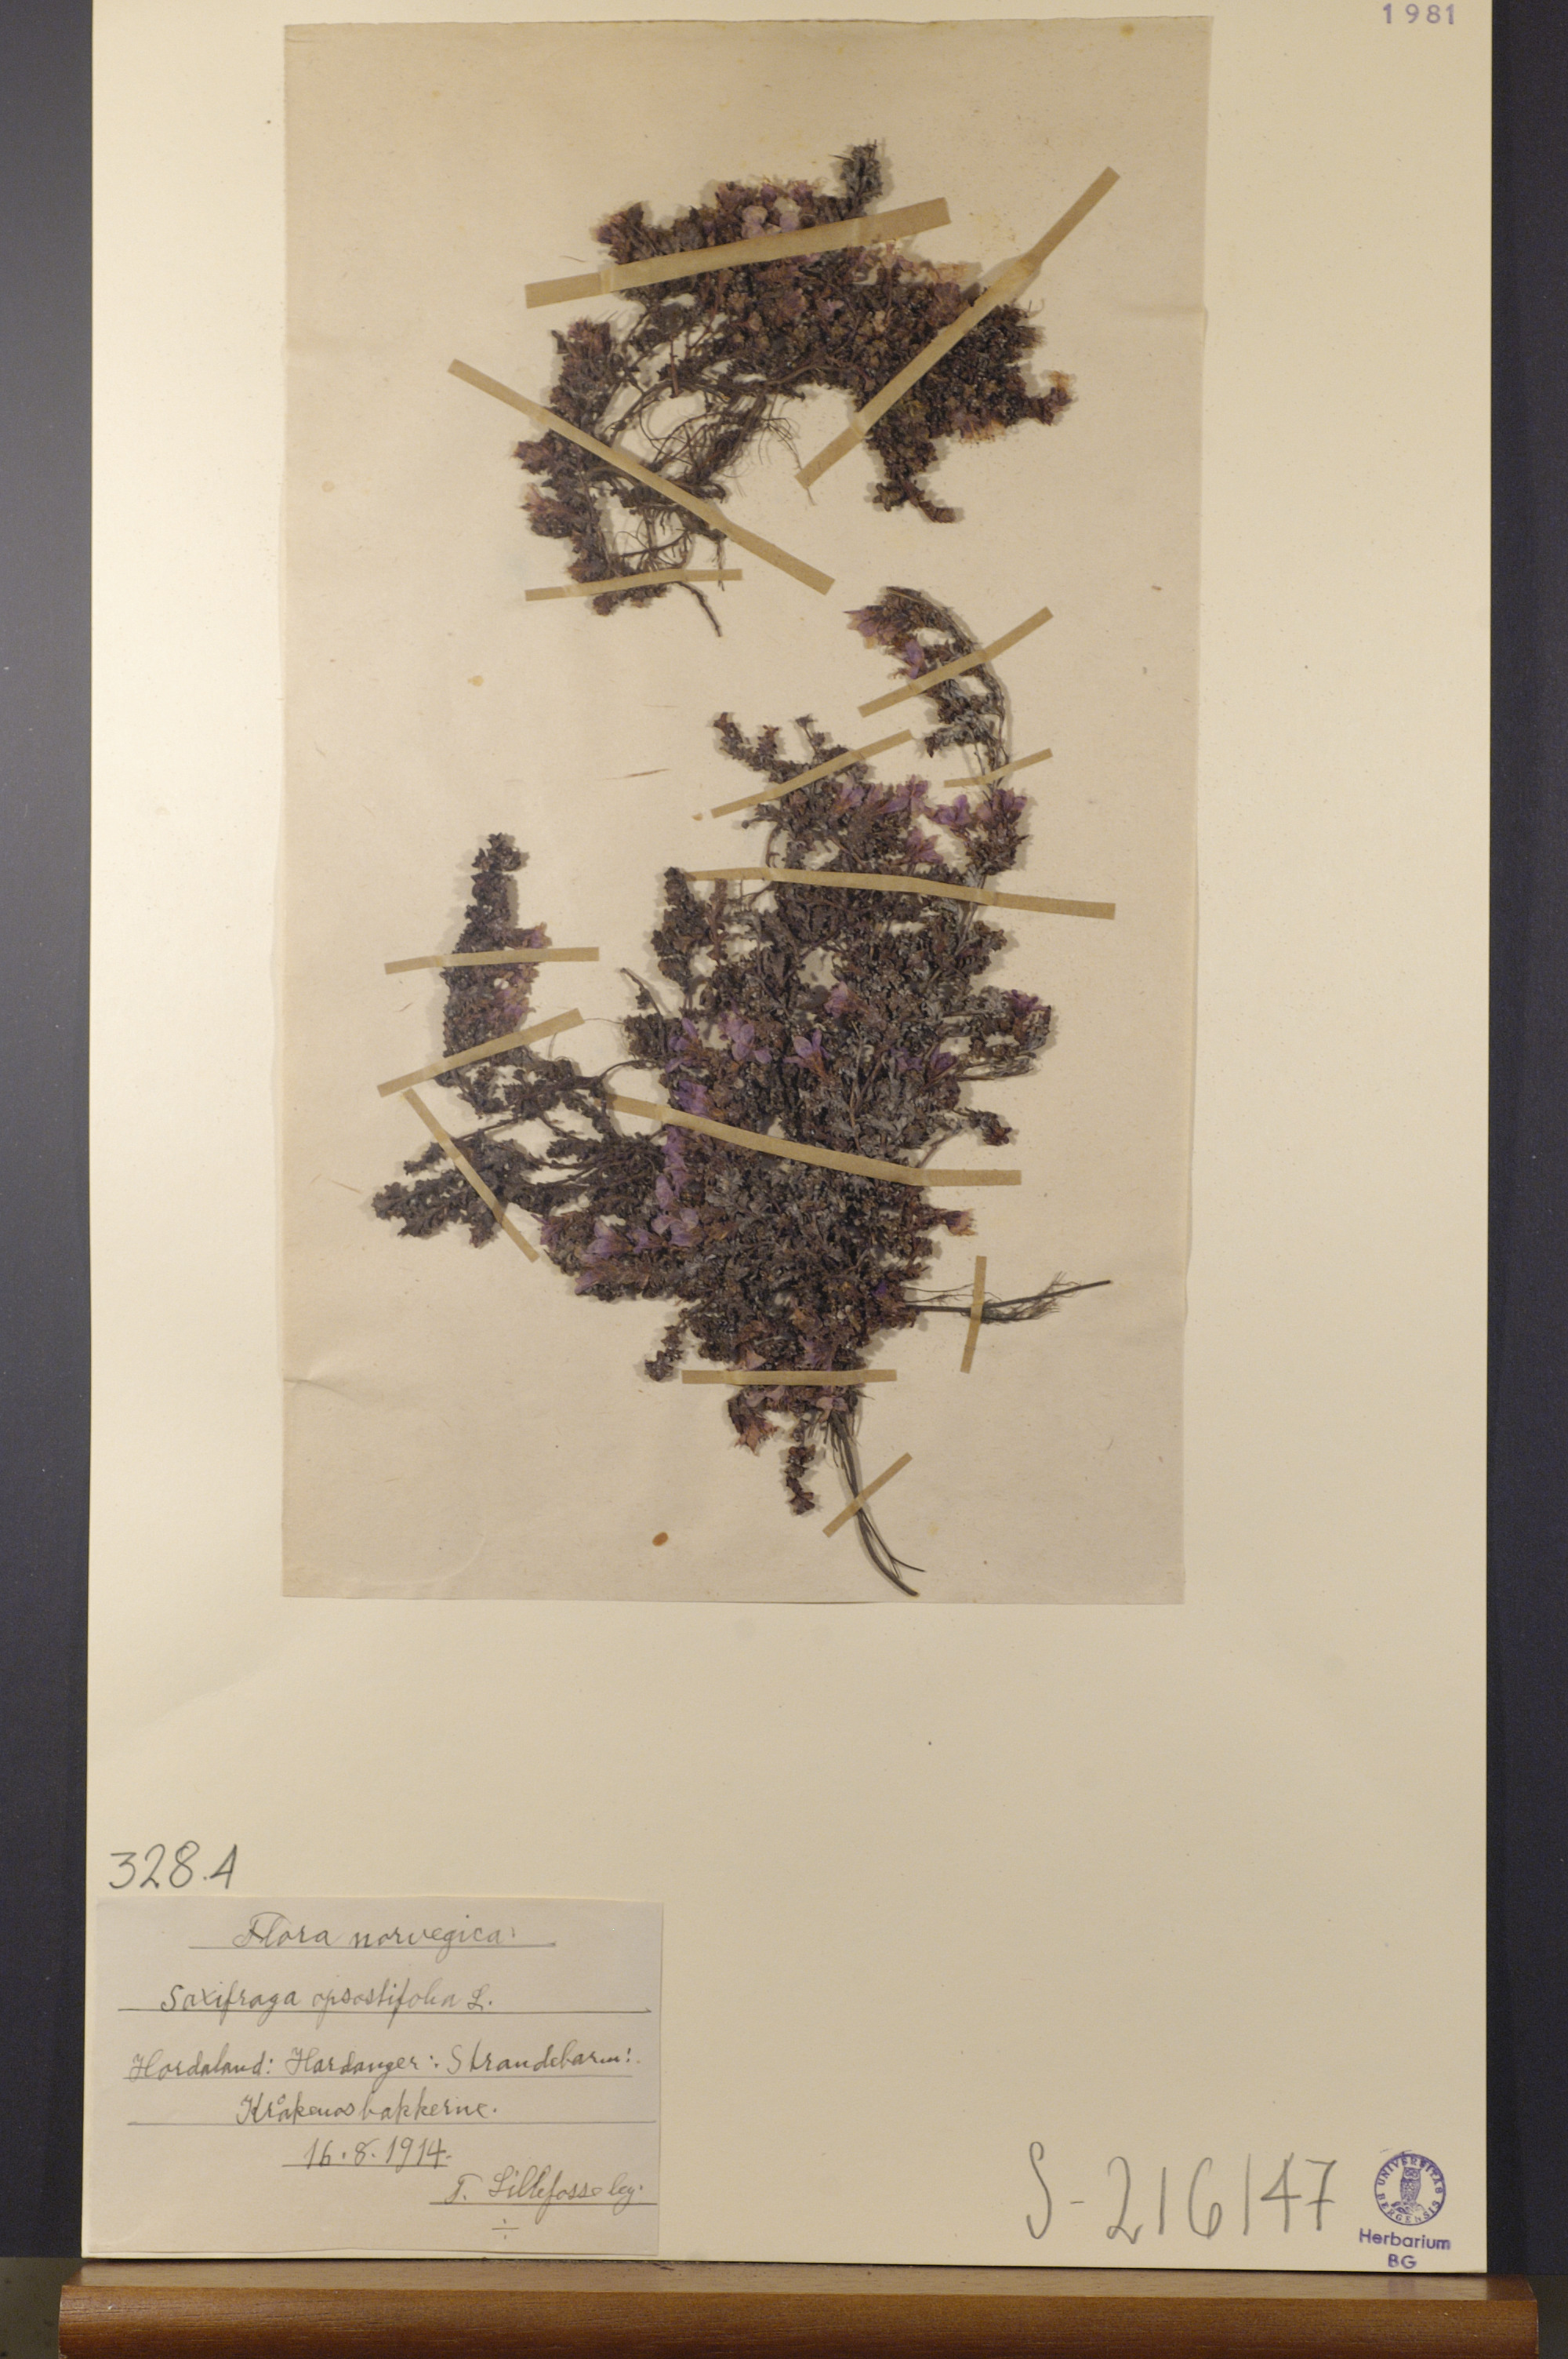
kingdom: Plantae
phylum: Tracheophyta
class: Magnoliopsida
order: Saxifragales
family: Saxifragaceae
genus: Saxifraga
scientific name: Saxifraga oppositifolia
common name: Purple saxifrage
